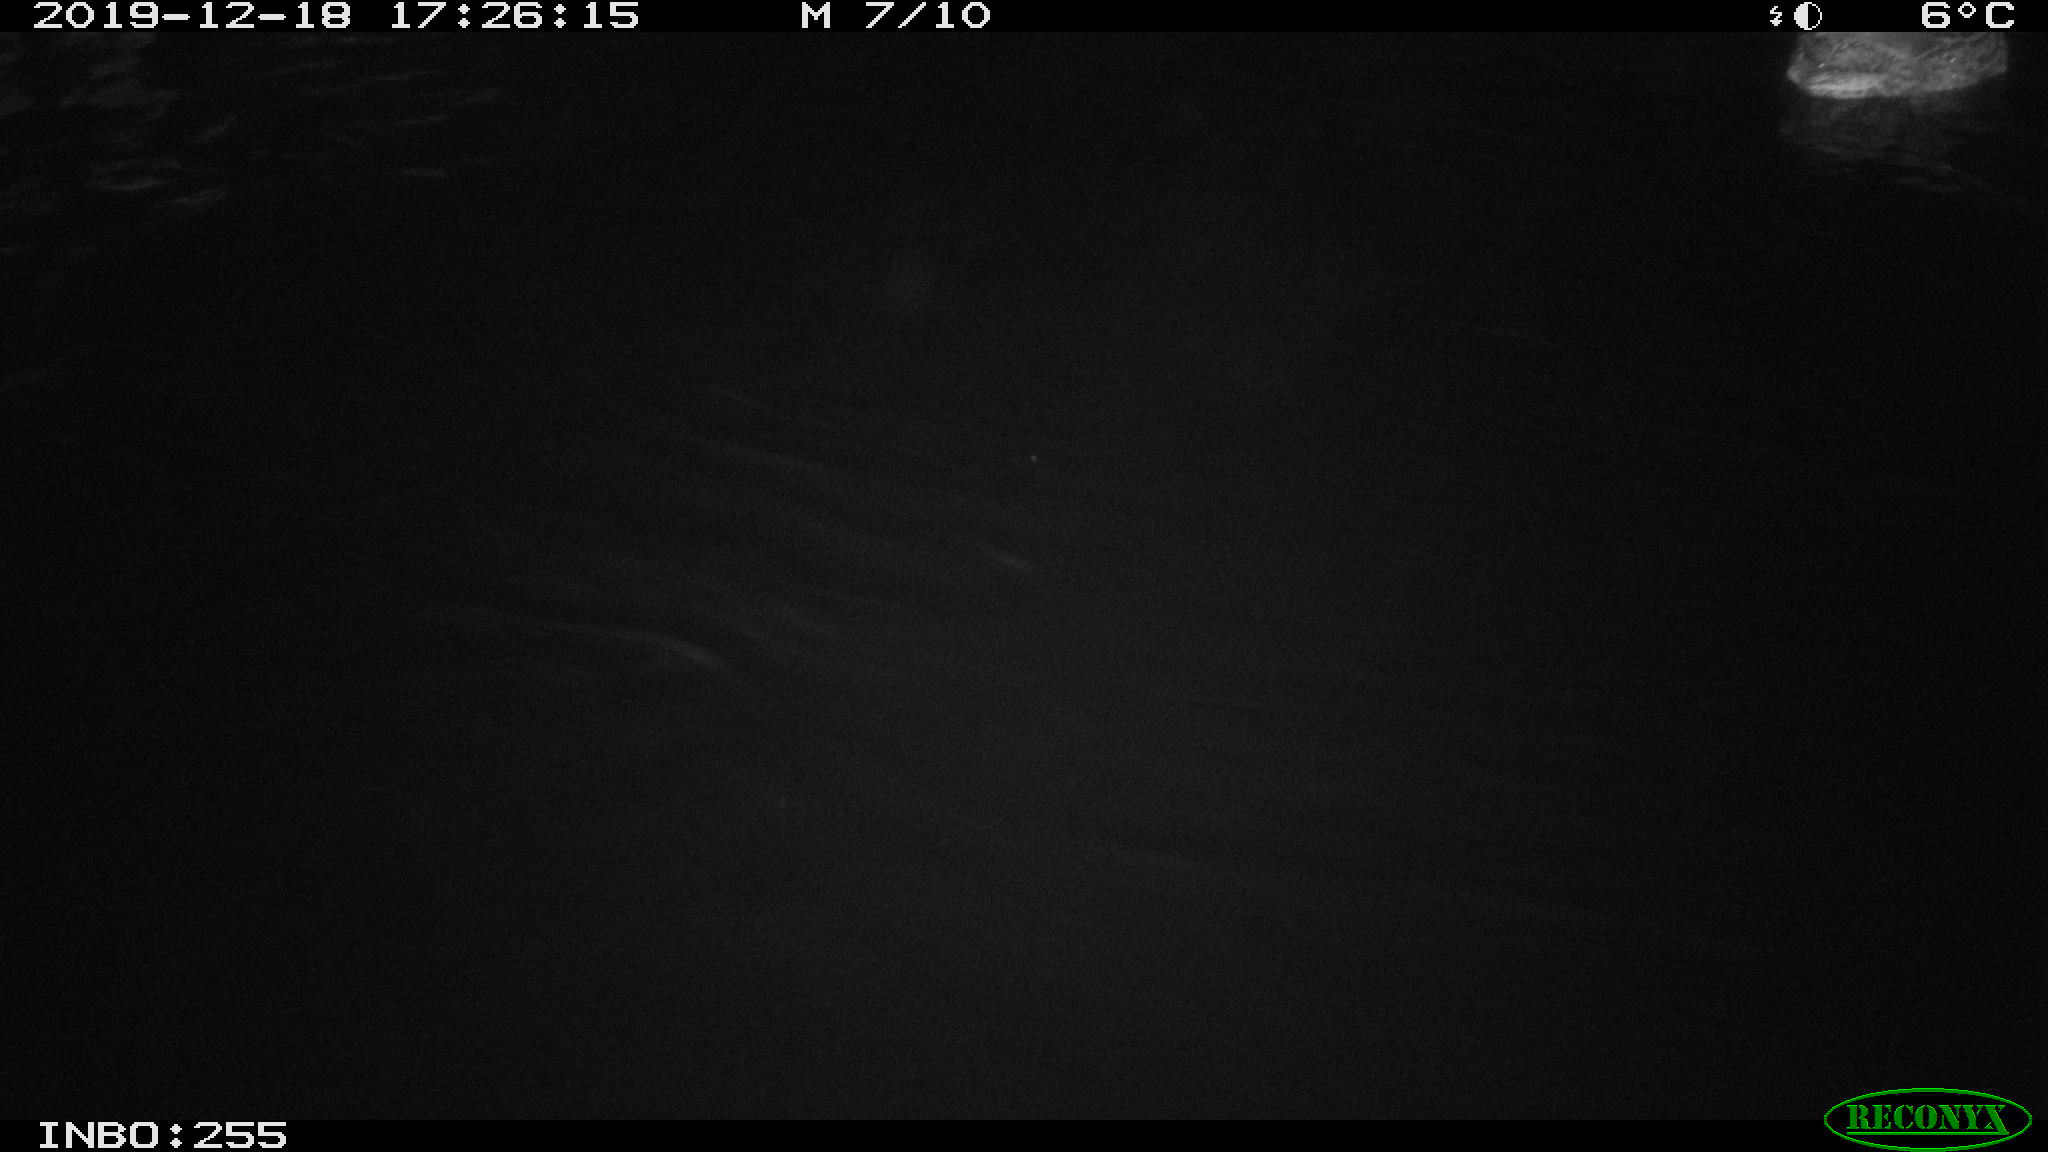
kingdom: Animalia
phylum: Chordata
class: Aves
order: Anseriformes
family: Anatidae
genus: Anas
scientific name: Anas platyrhynchos
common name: Mallard
